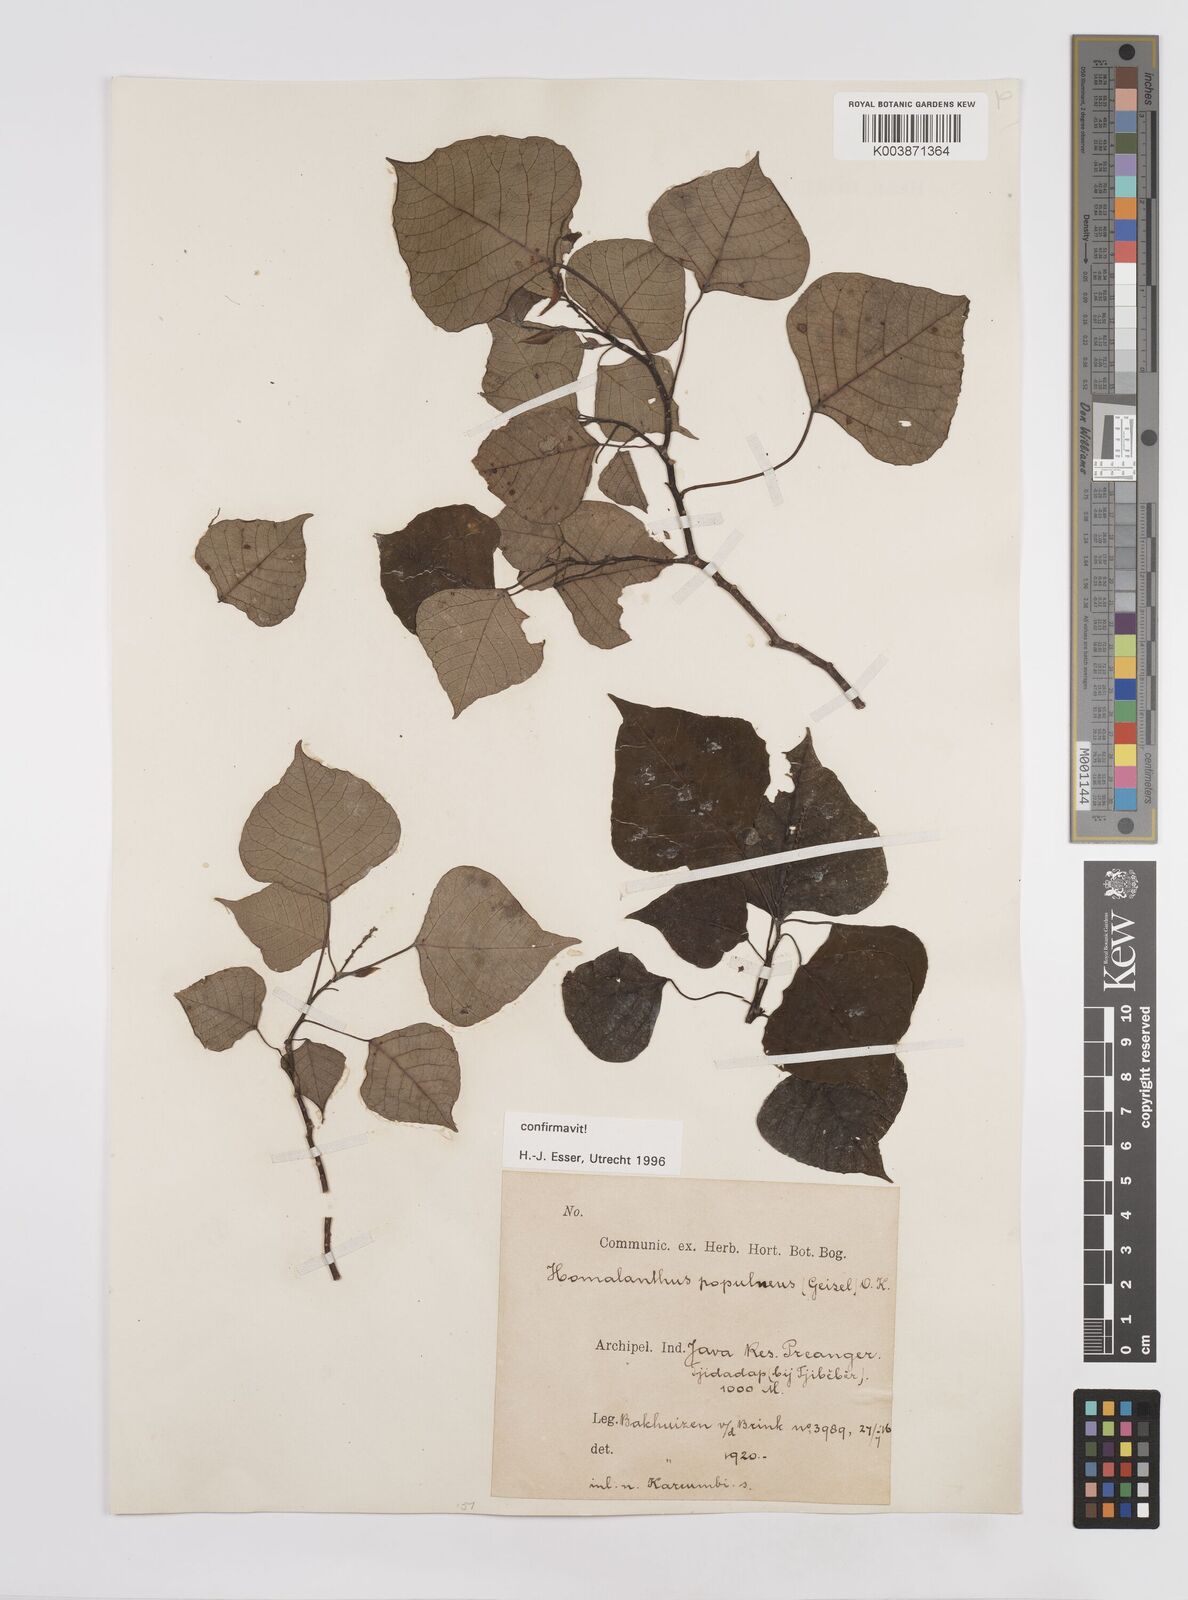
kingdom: Plantae
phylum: Tracheophyta
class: Magnoliopsida
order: Malpighiales
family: Euphorbiaceae
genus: Homalanthus
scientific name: Homalanthus populneus
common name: Spurge
